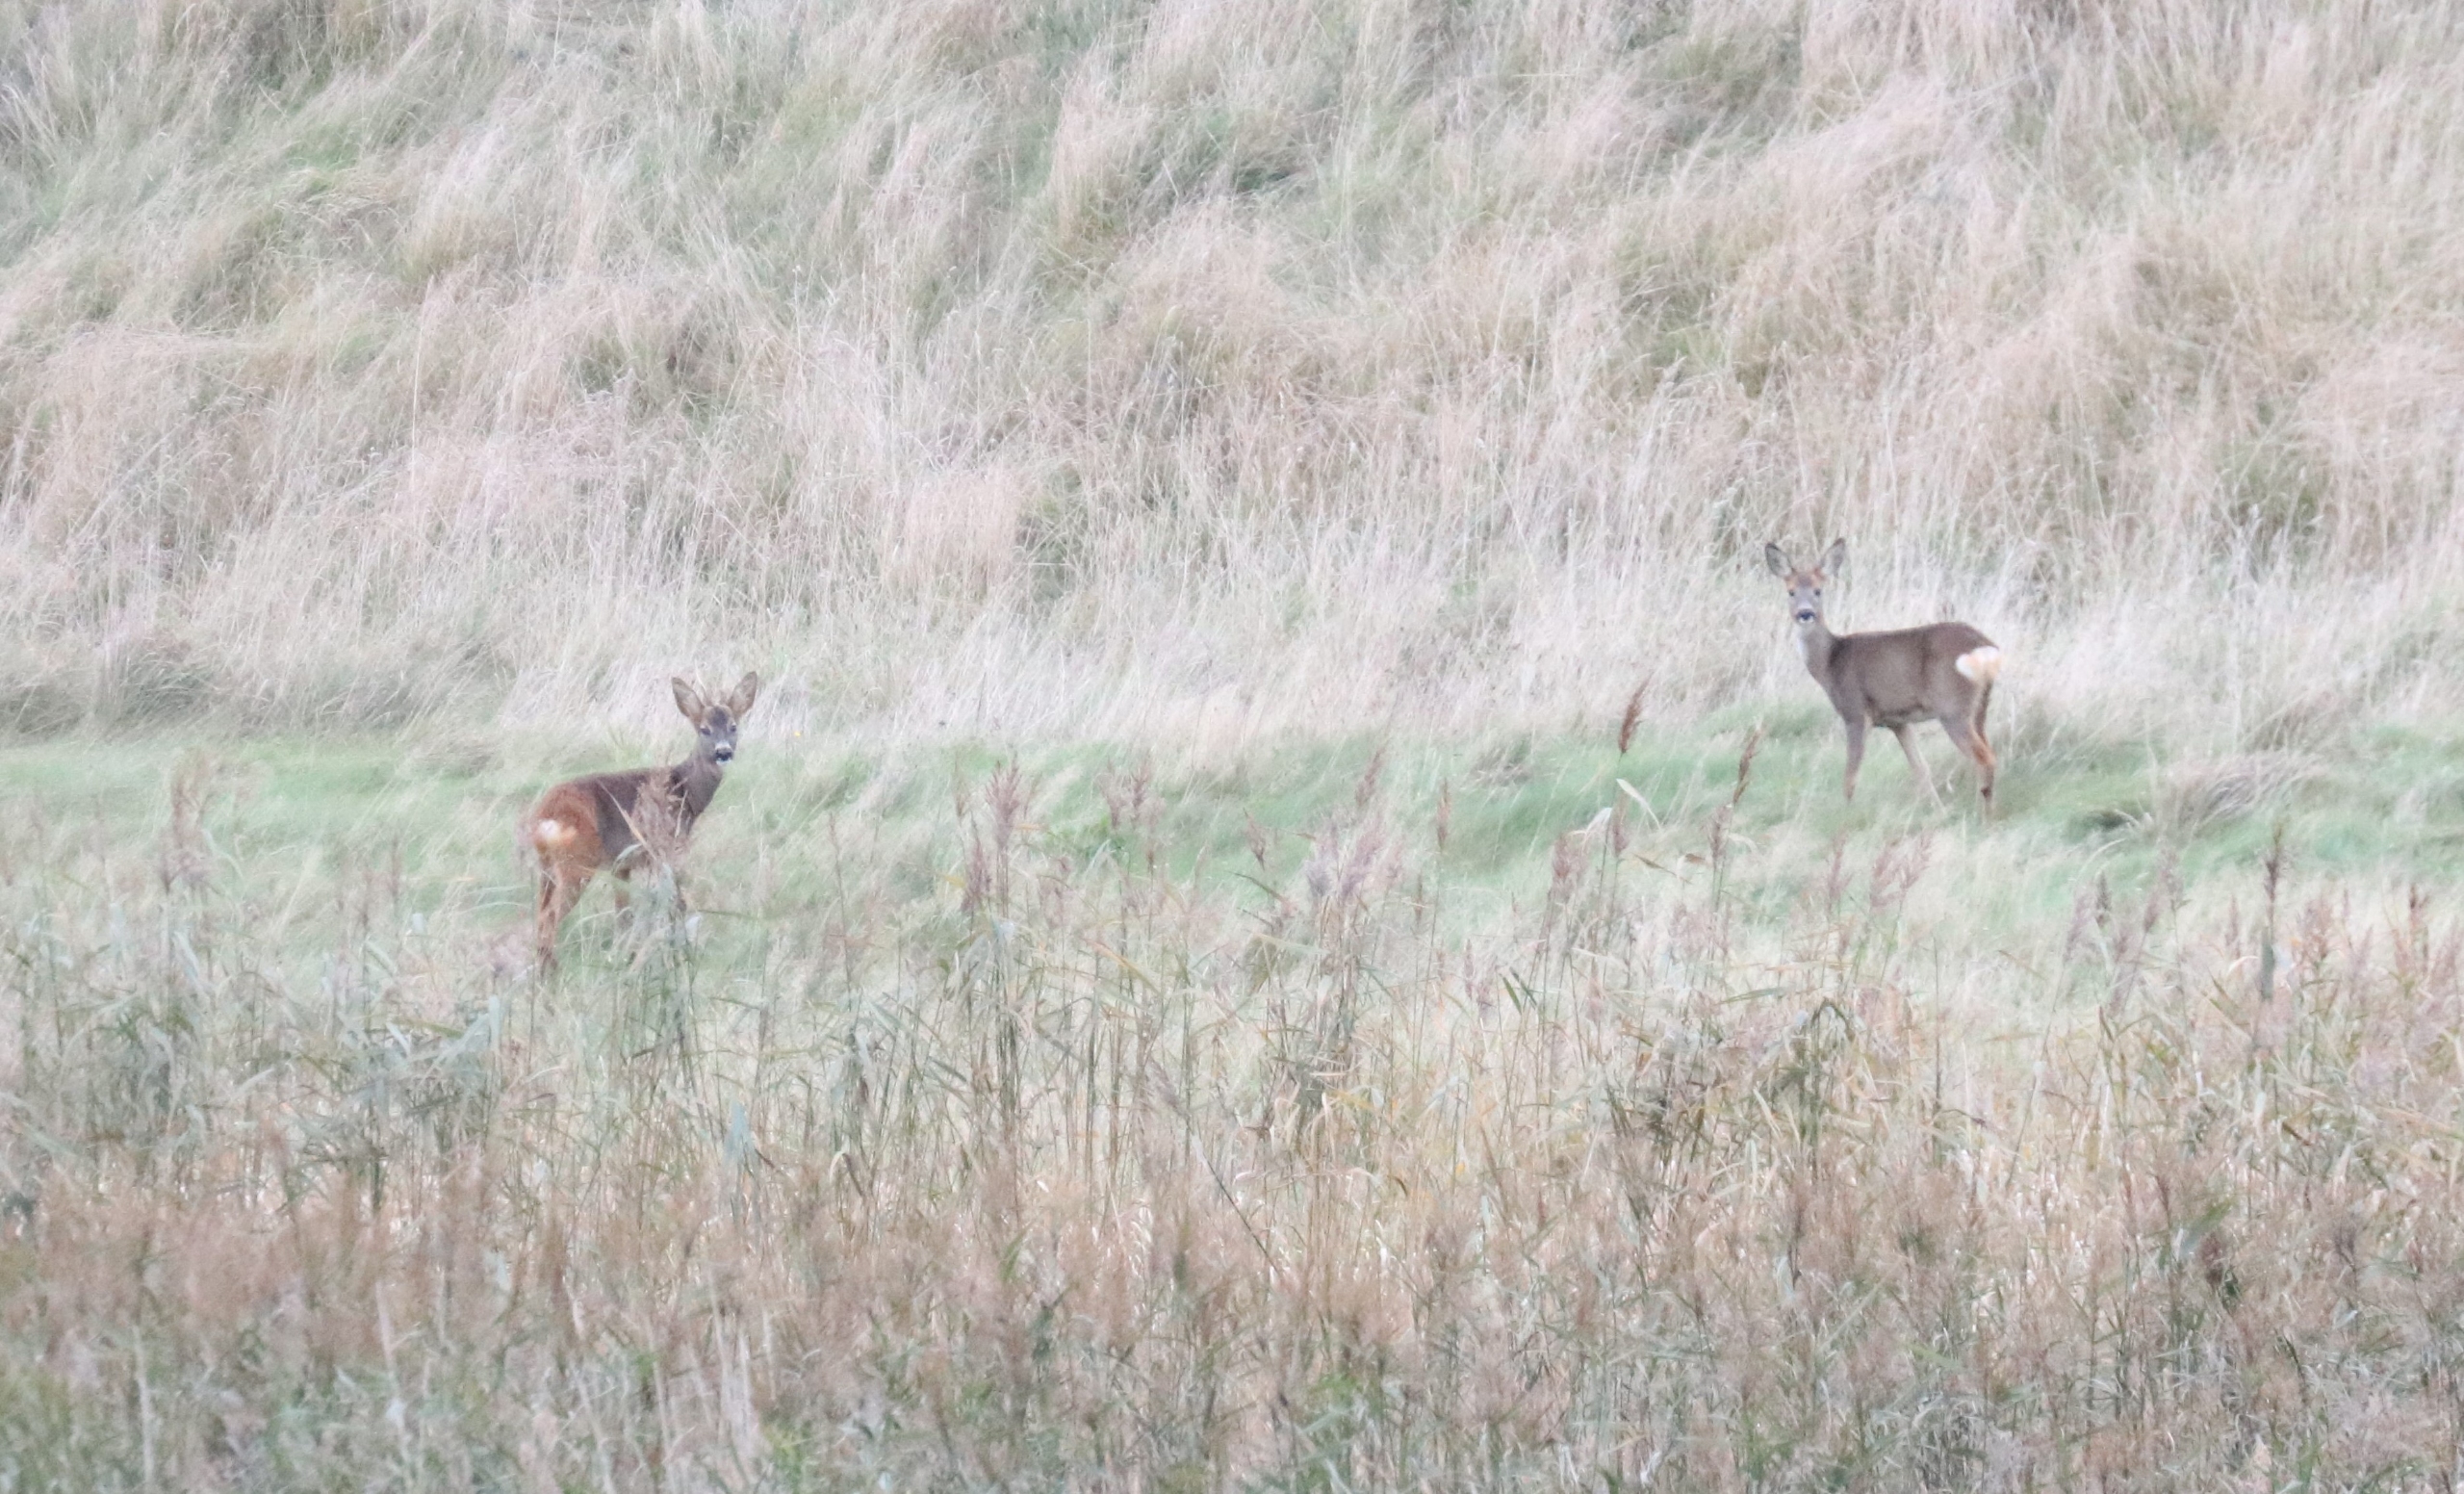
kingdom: Animalia
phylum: Chordata
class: Mammalia
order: Artiodactyla
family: Cervidae
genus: Capreolus
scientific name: Capreolus capreolus
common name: Rådyr
